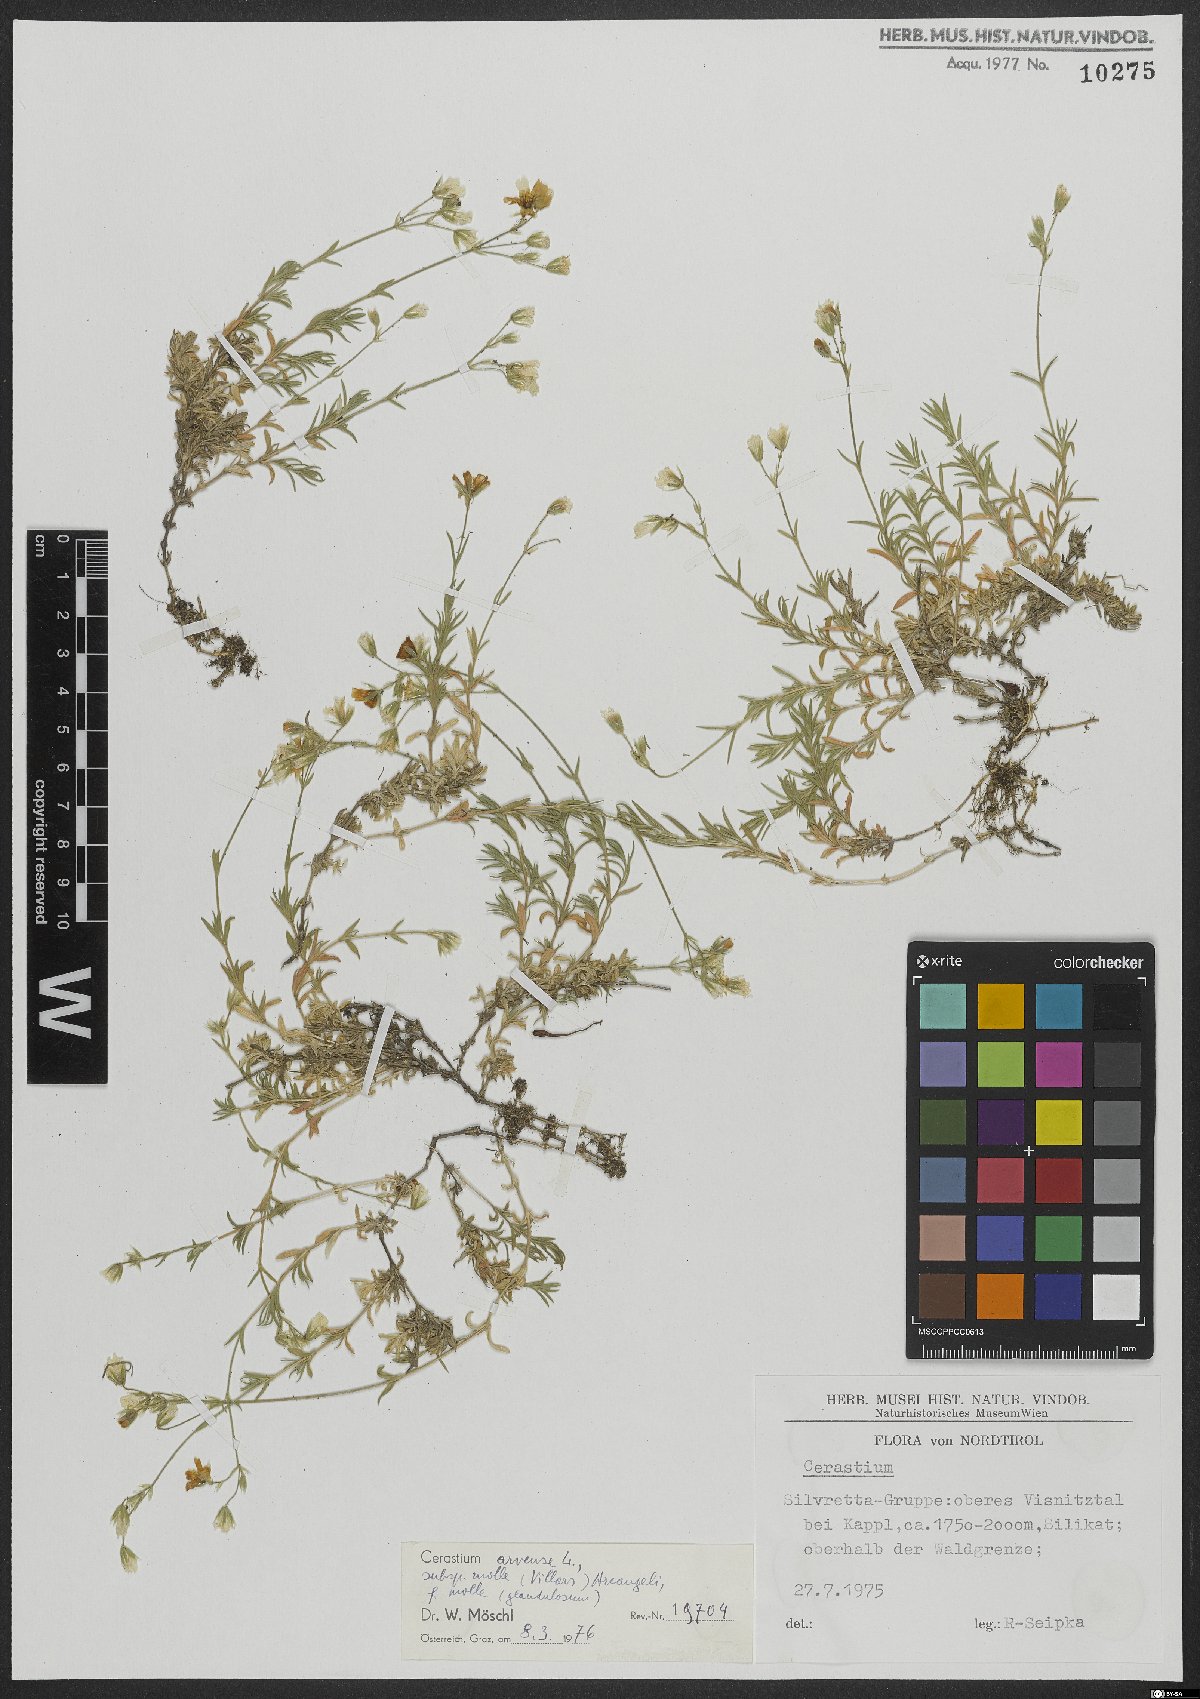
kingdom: Plantae
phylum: Tracheophyta
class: Magnoliopsida
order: Caryophyllales
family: Caryophyllaceae
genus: Cerastium
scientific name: Cerastium arvense
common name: Field mouse-ear
